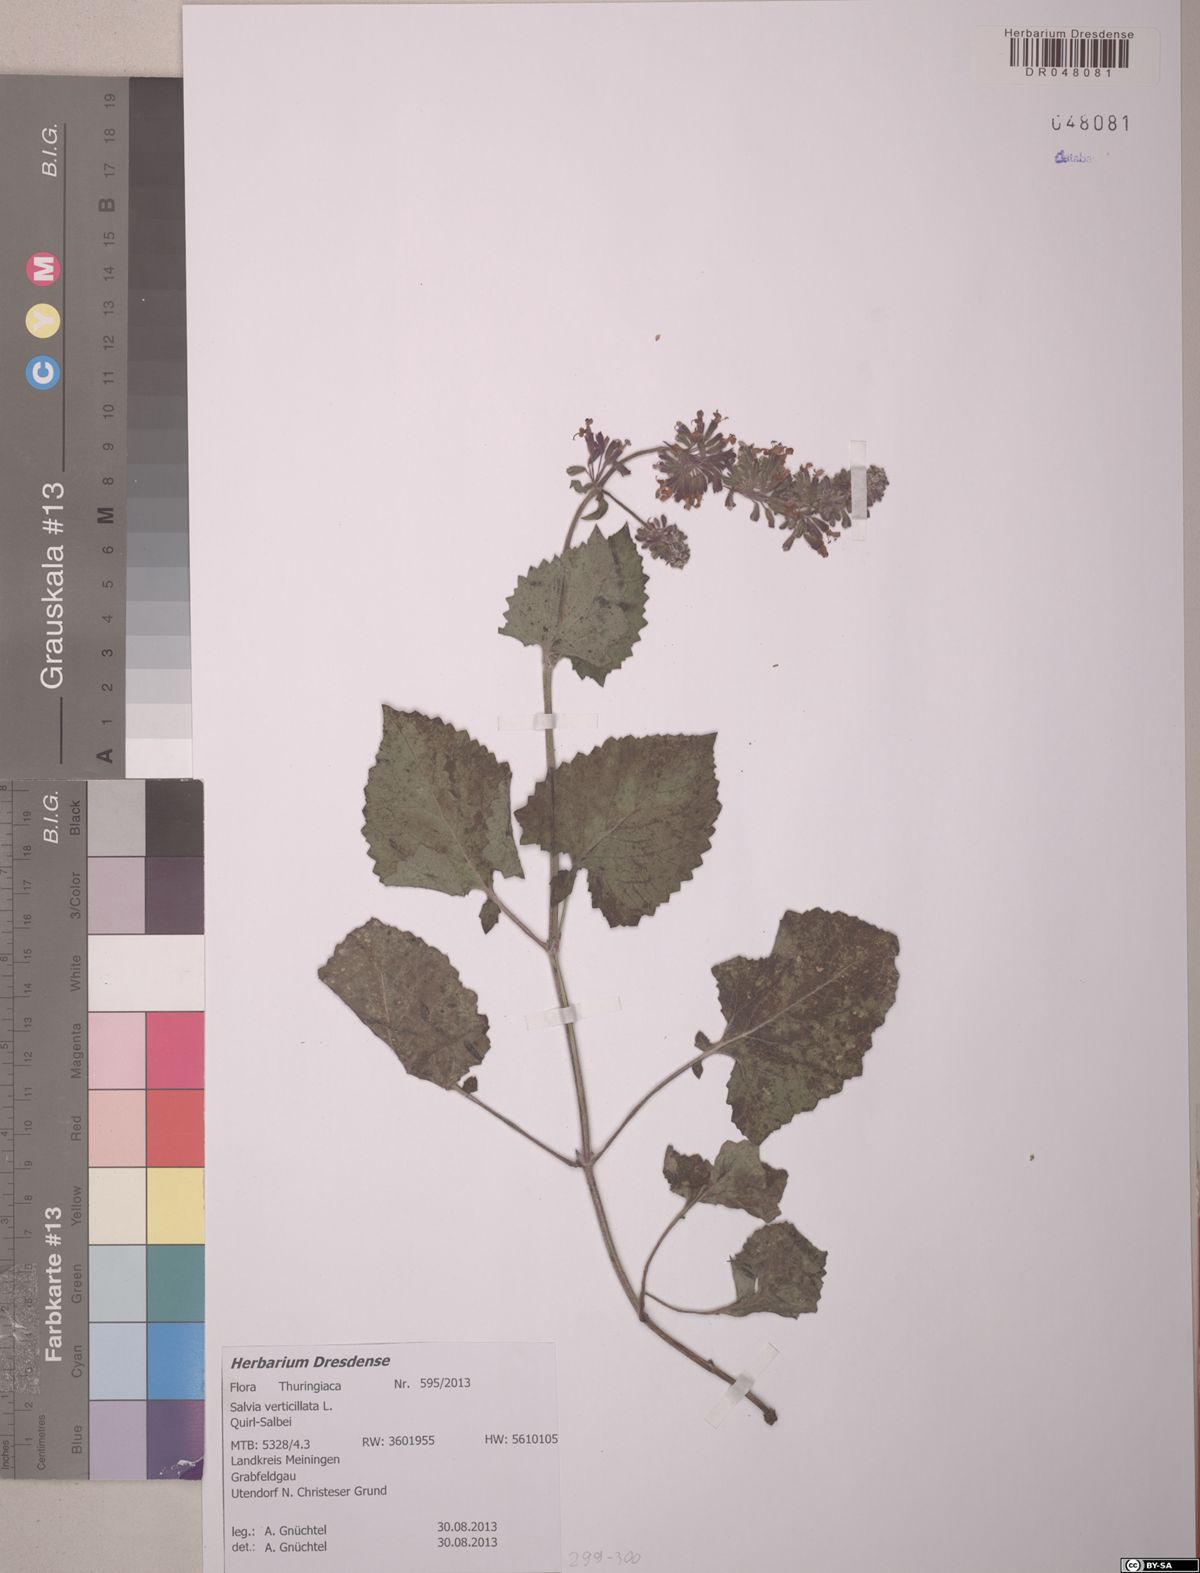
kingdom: Plantae
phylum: Tracheophyta
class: Magnoliopsida
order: Lamiales
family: Lamiaceae
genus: Salvia
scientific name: Salvia verticillata
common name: Whorled clary
